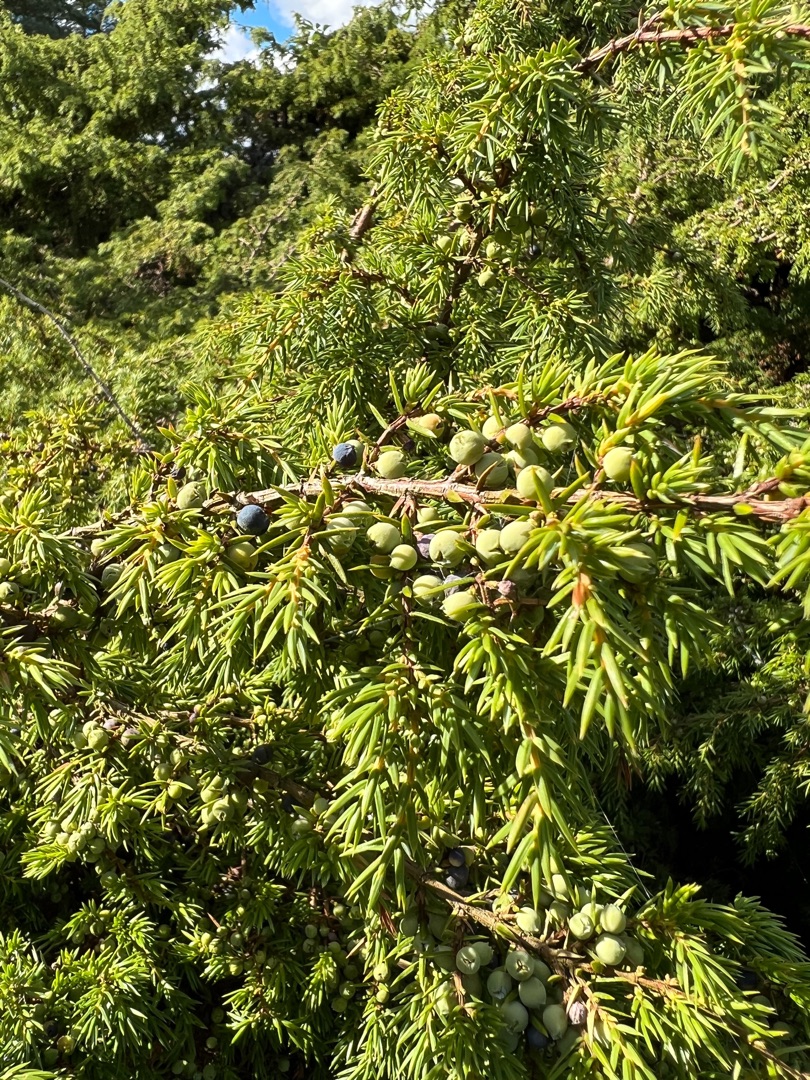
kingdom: Plantae
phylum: Tracheophyta
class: Pinopsida
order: Pinales
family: Cupressaceae
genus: Juniperus
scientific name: Juniperus communis
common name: Almindelig ene
